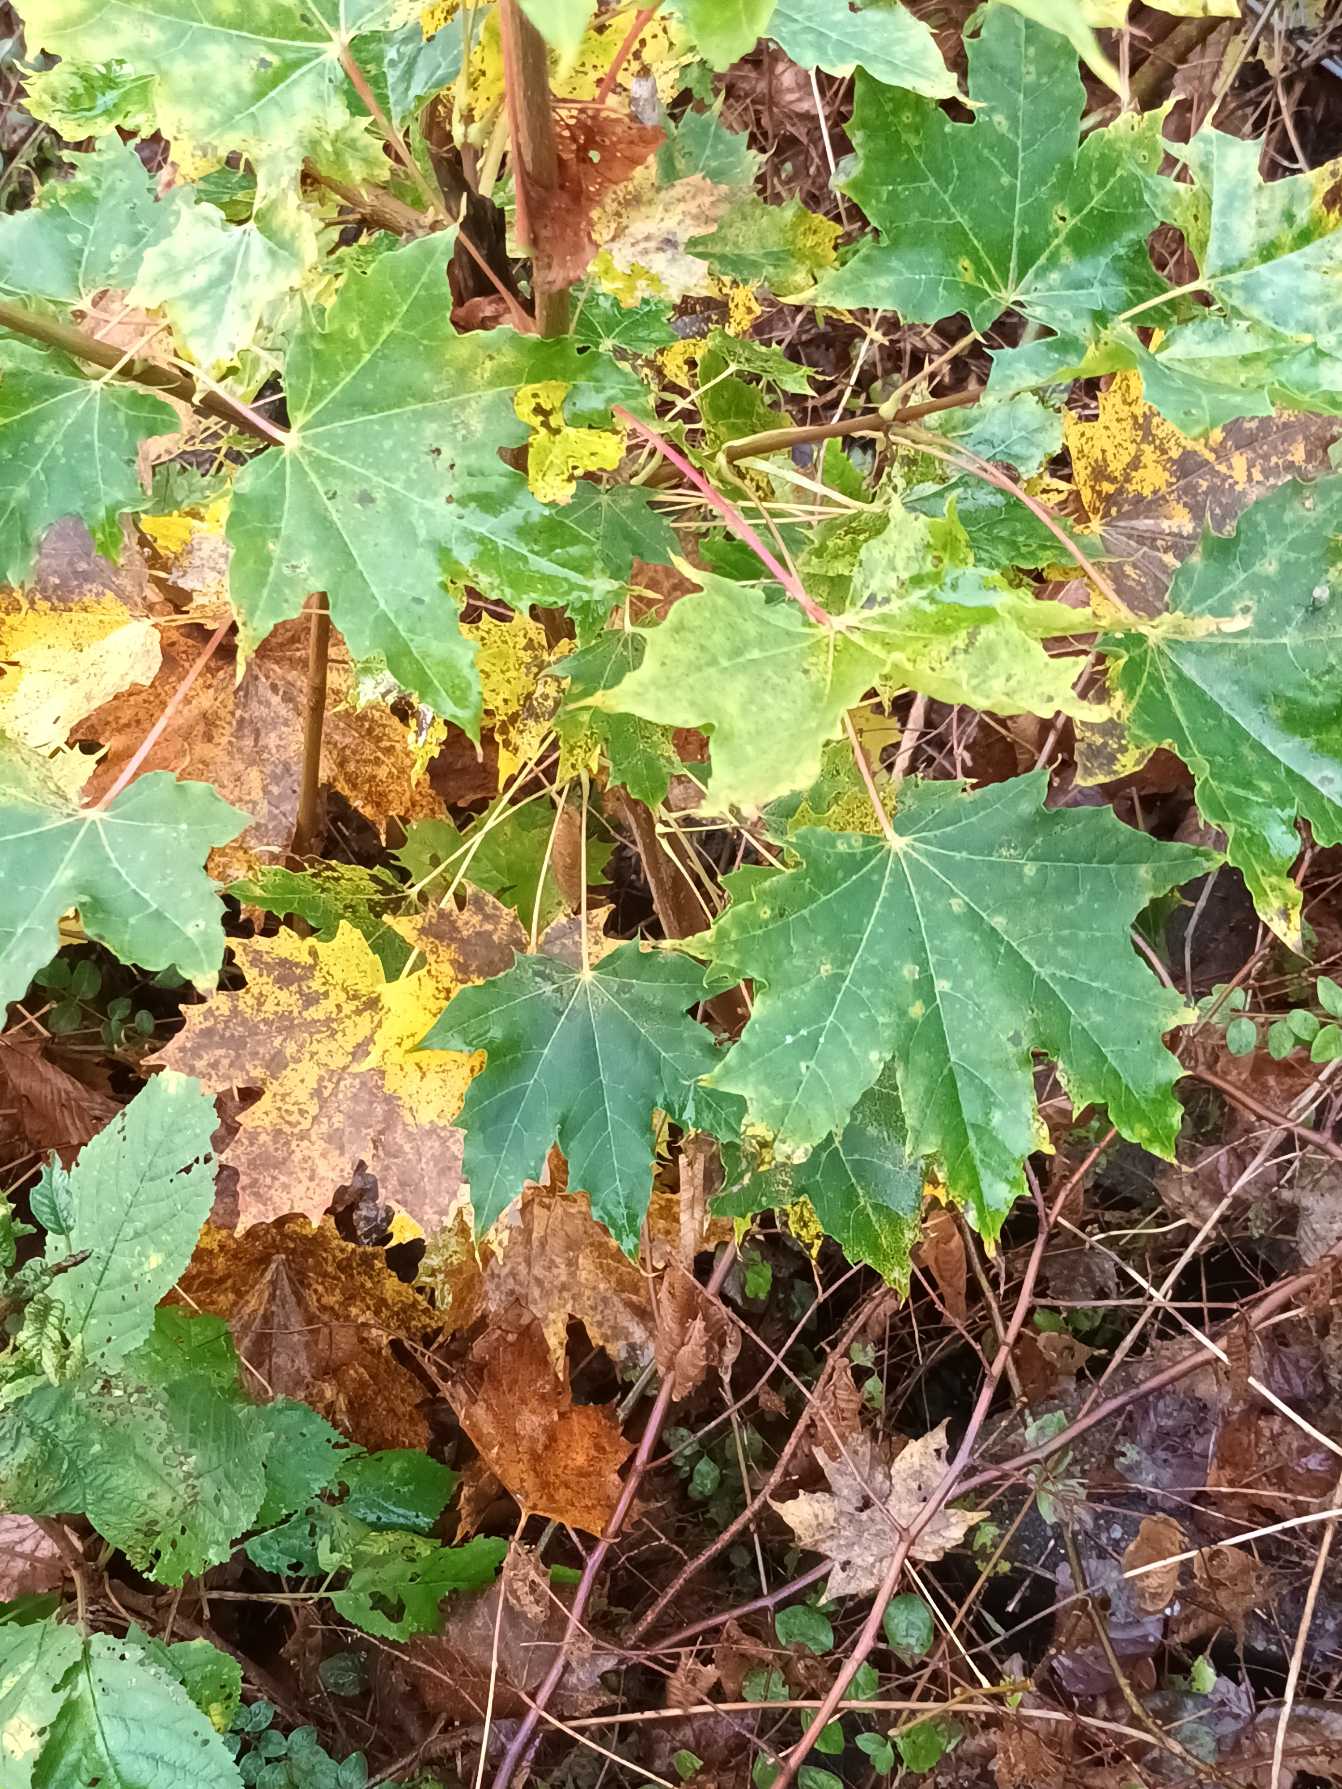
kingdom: Plantae
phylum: Tracheophyta
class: Magnoliopsida
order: Sapindales
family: Sapindaceae
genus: Acer
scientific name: Acer platanoides
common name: Spids-løn
